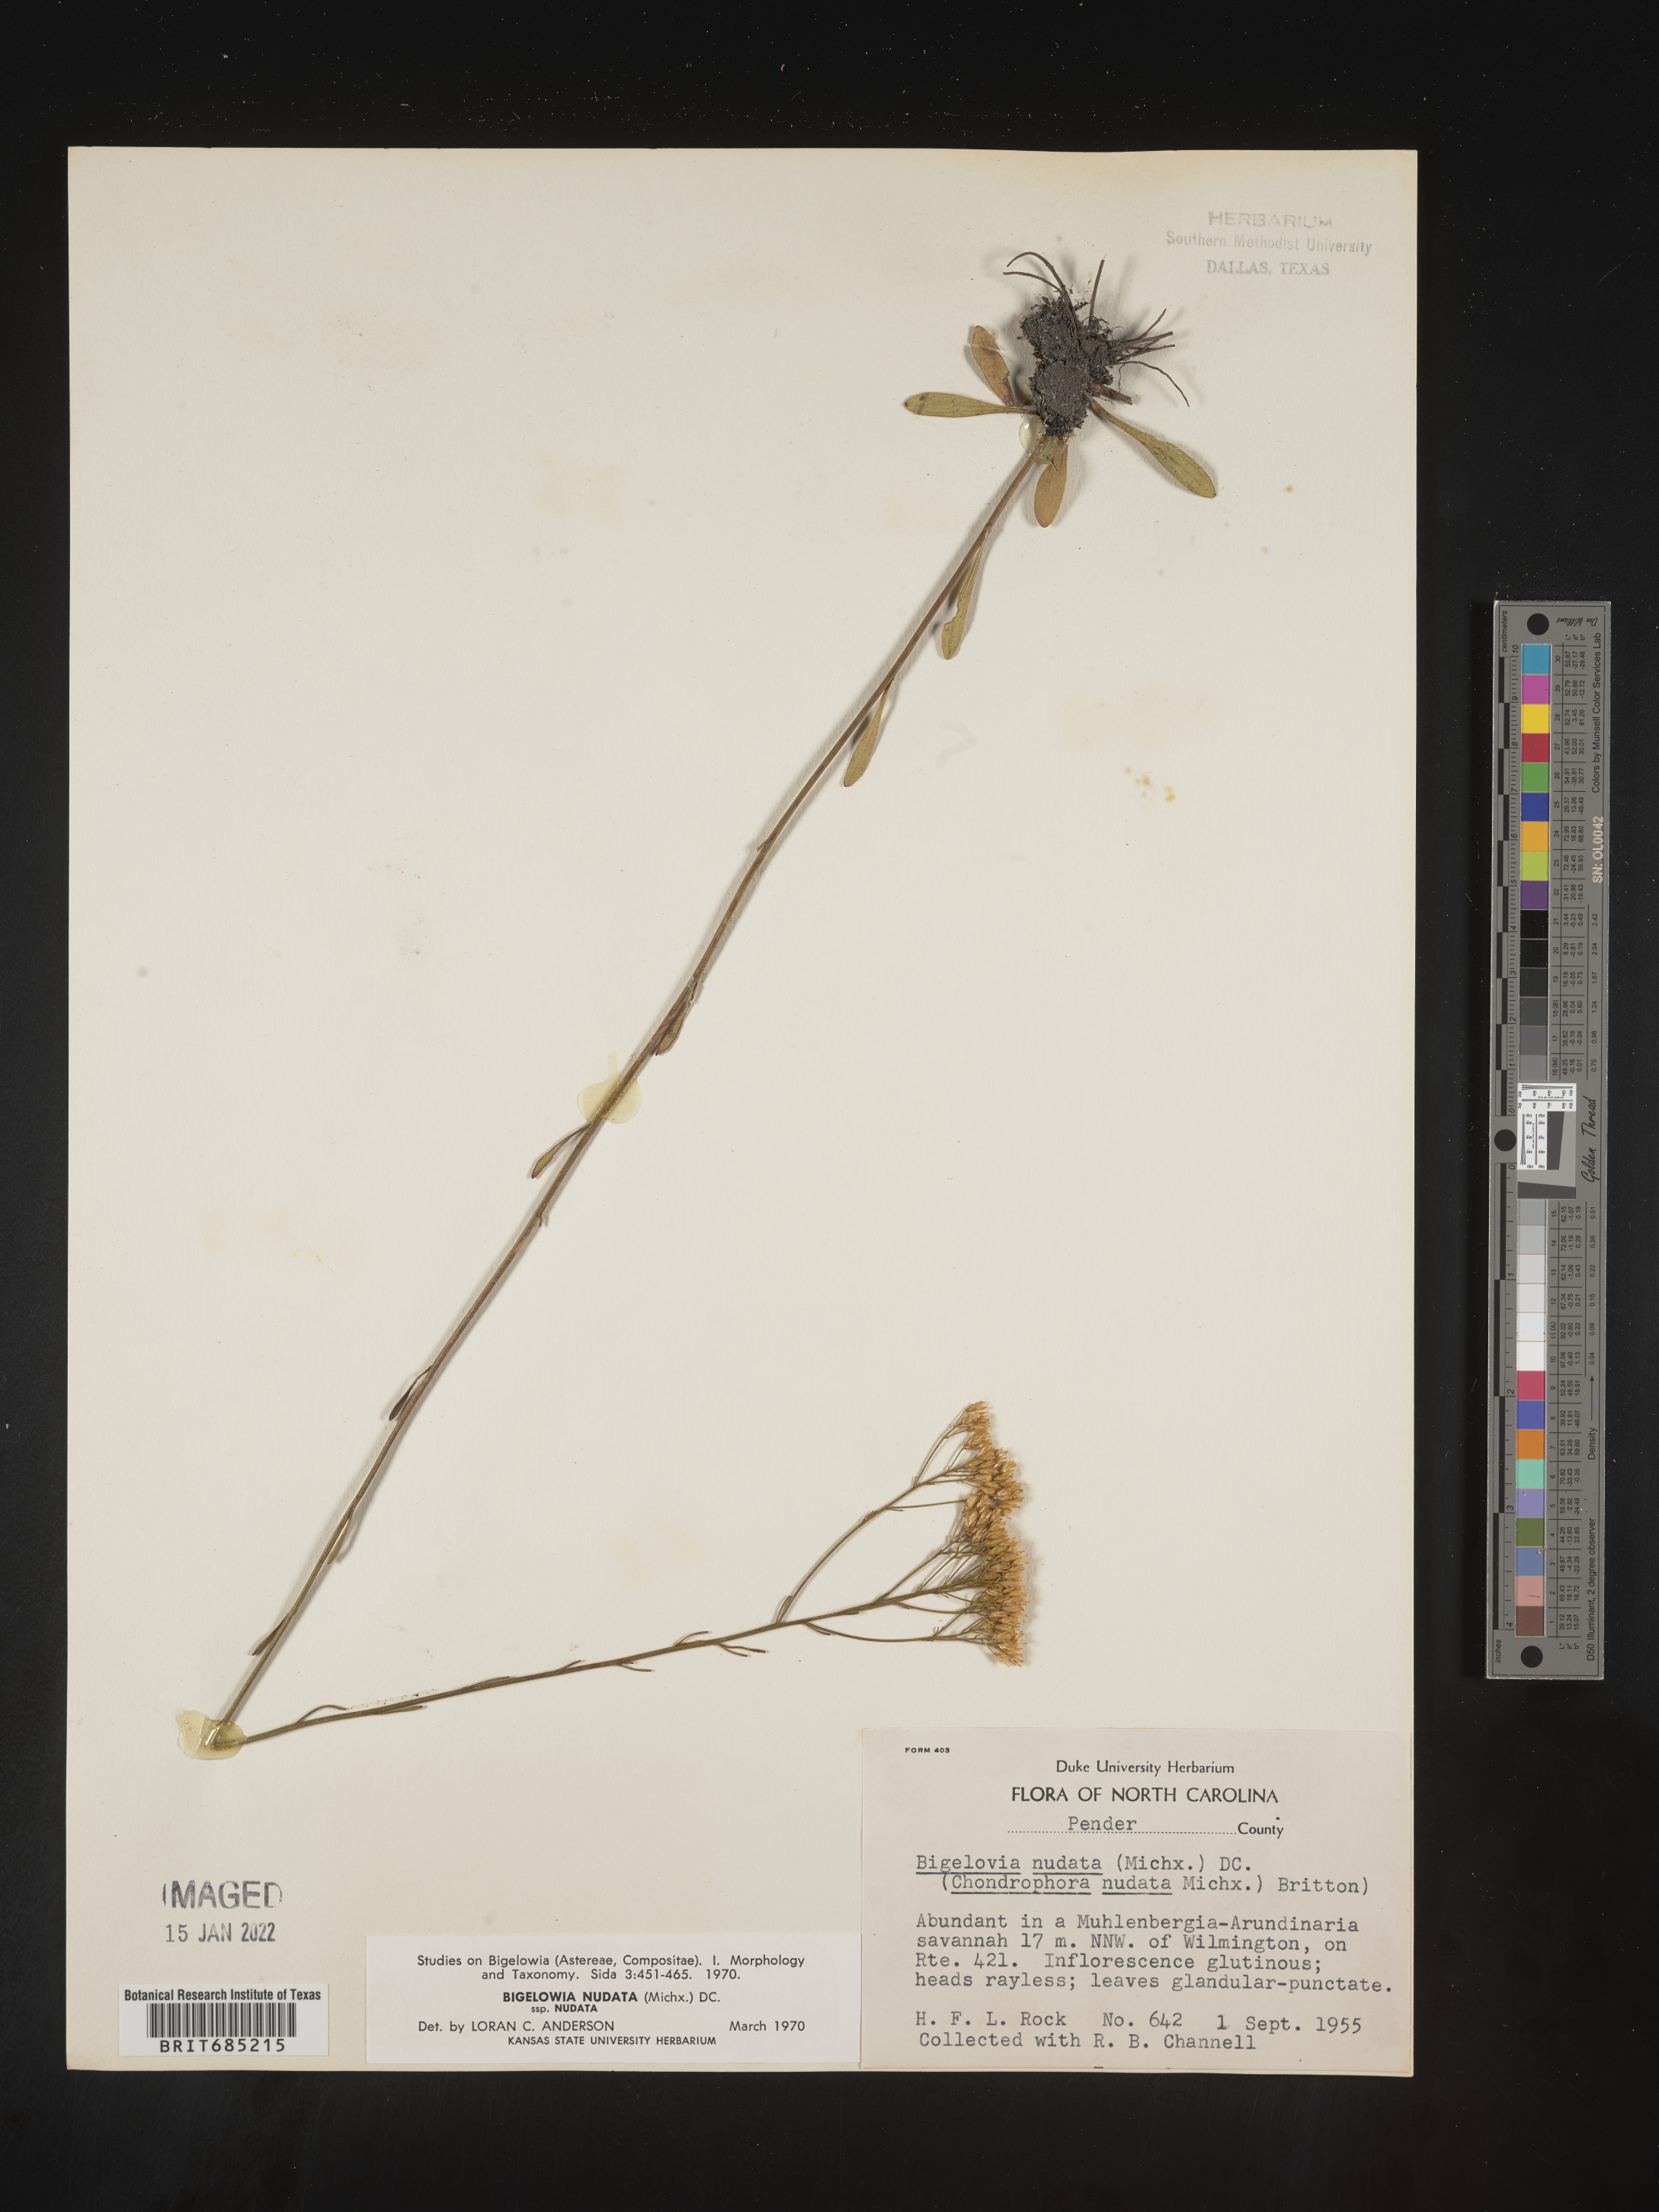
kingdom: Plantae
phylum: Tracheophyta
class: Magnoliopsida
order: Asterales
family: Asteraceae
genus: Bigelowia
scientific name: Bigelowia nudata
